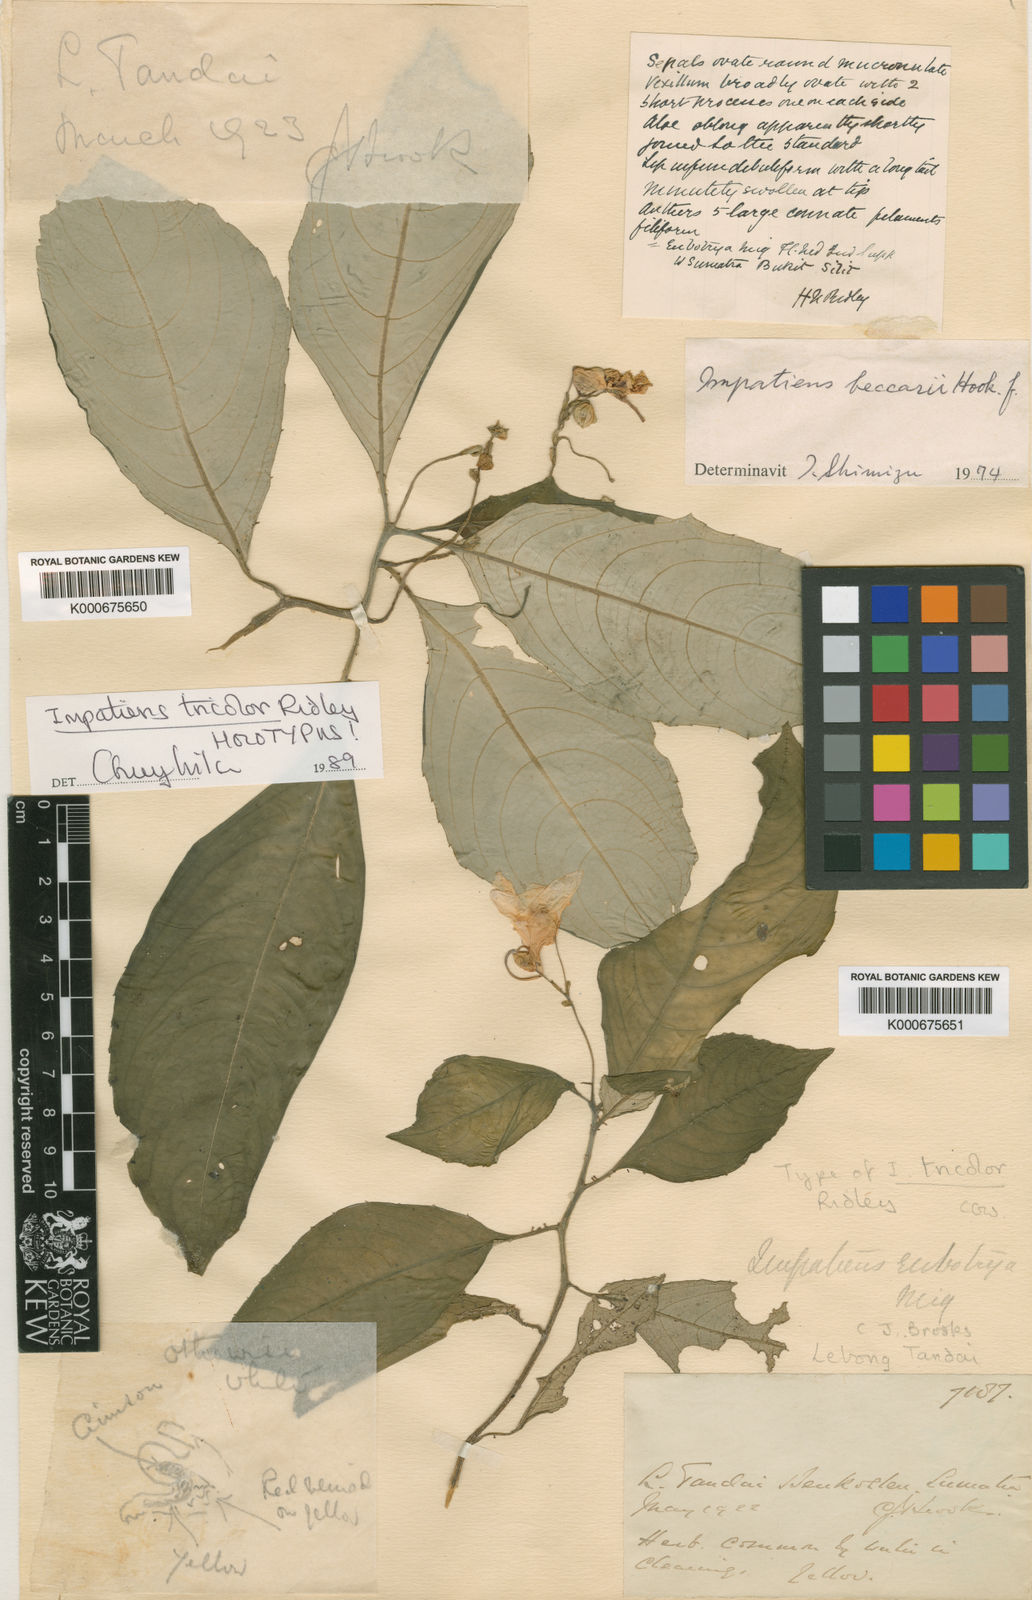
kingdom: Plantae
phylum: Tracheophyta
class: Magnoliopsida
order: Ericales
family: Balsaminaceae
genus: Impatiens
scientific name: Impatiens eubotrya
